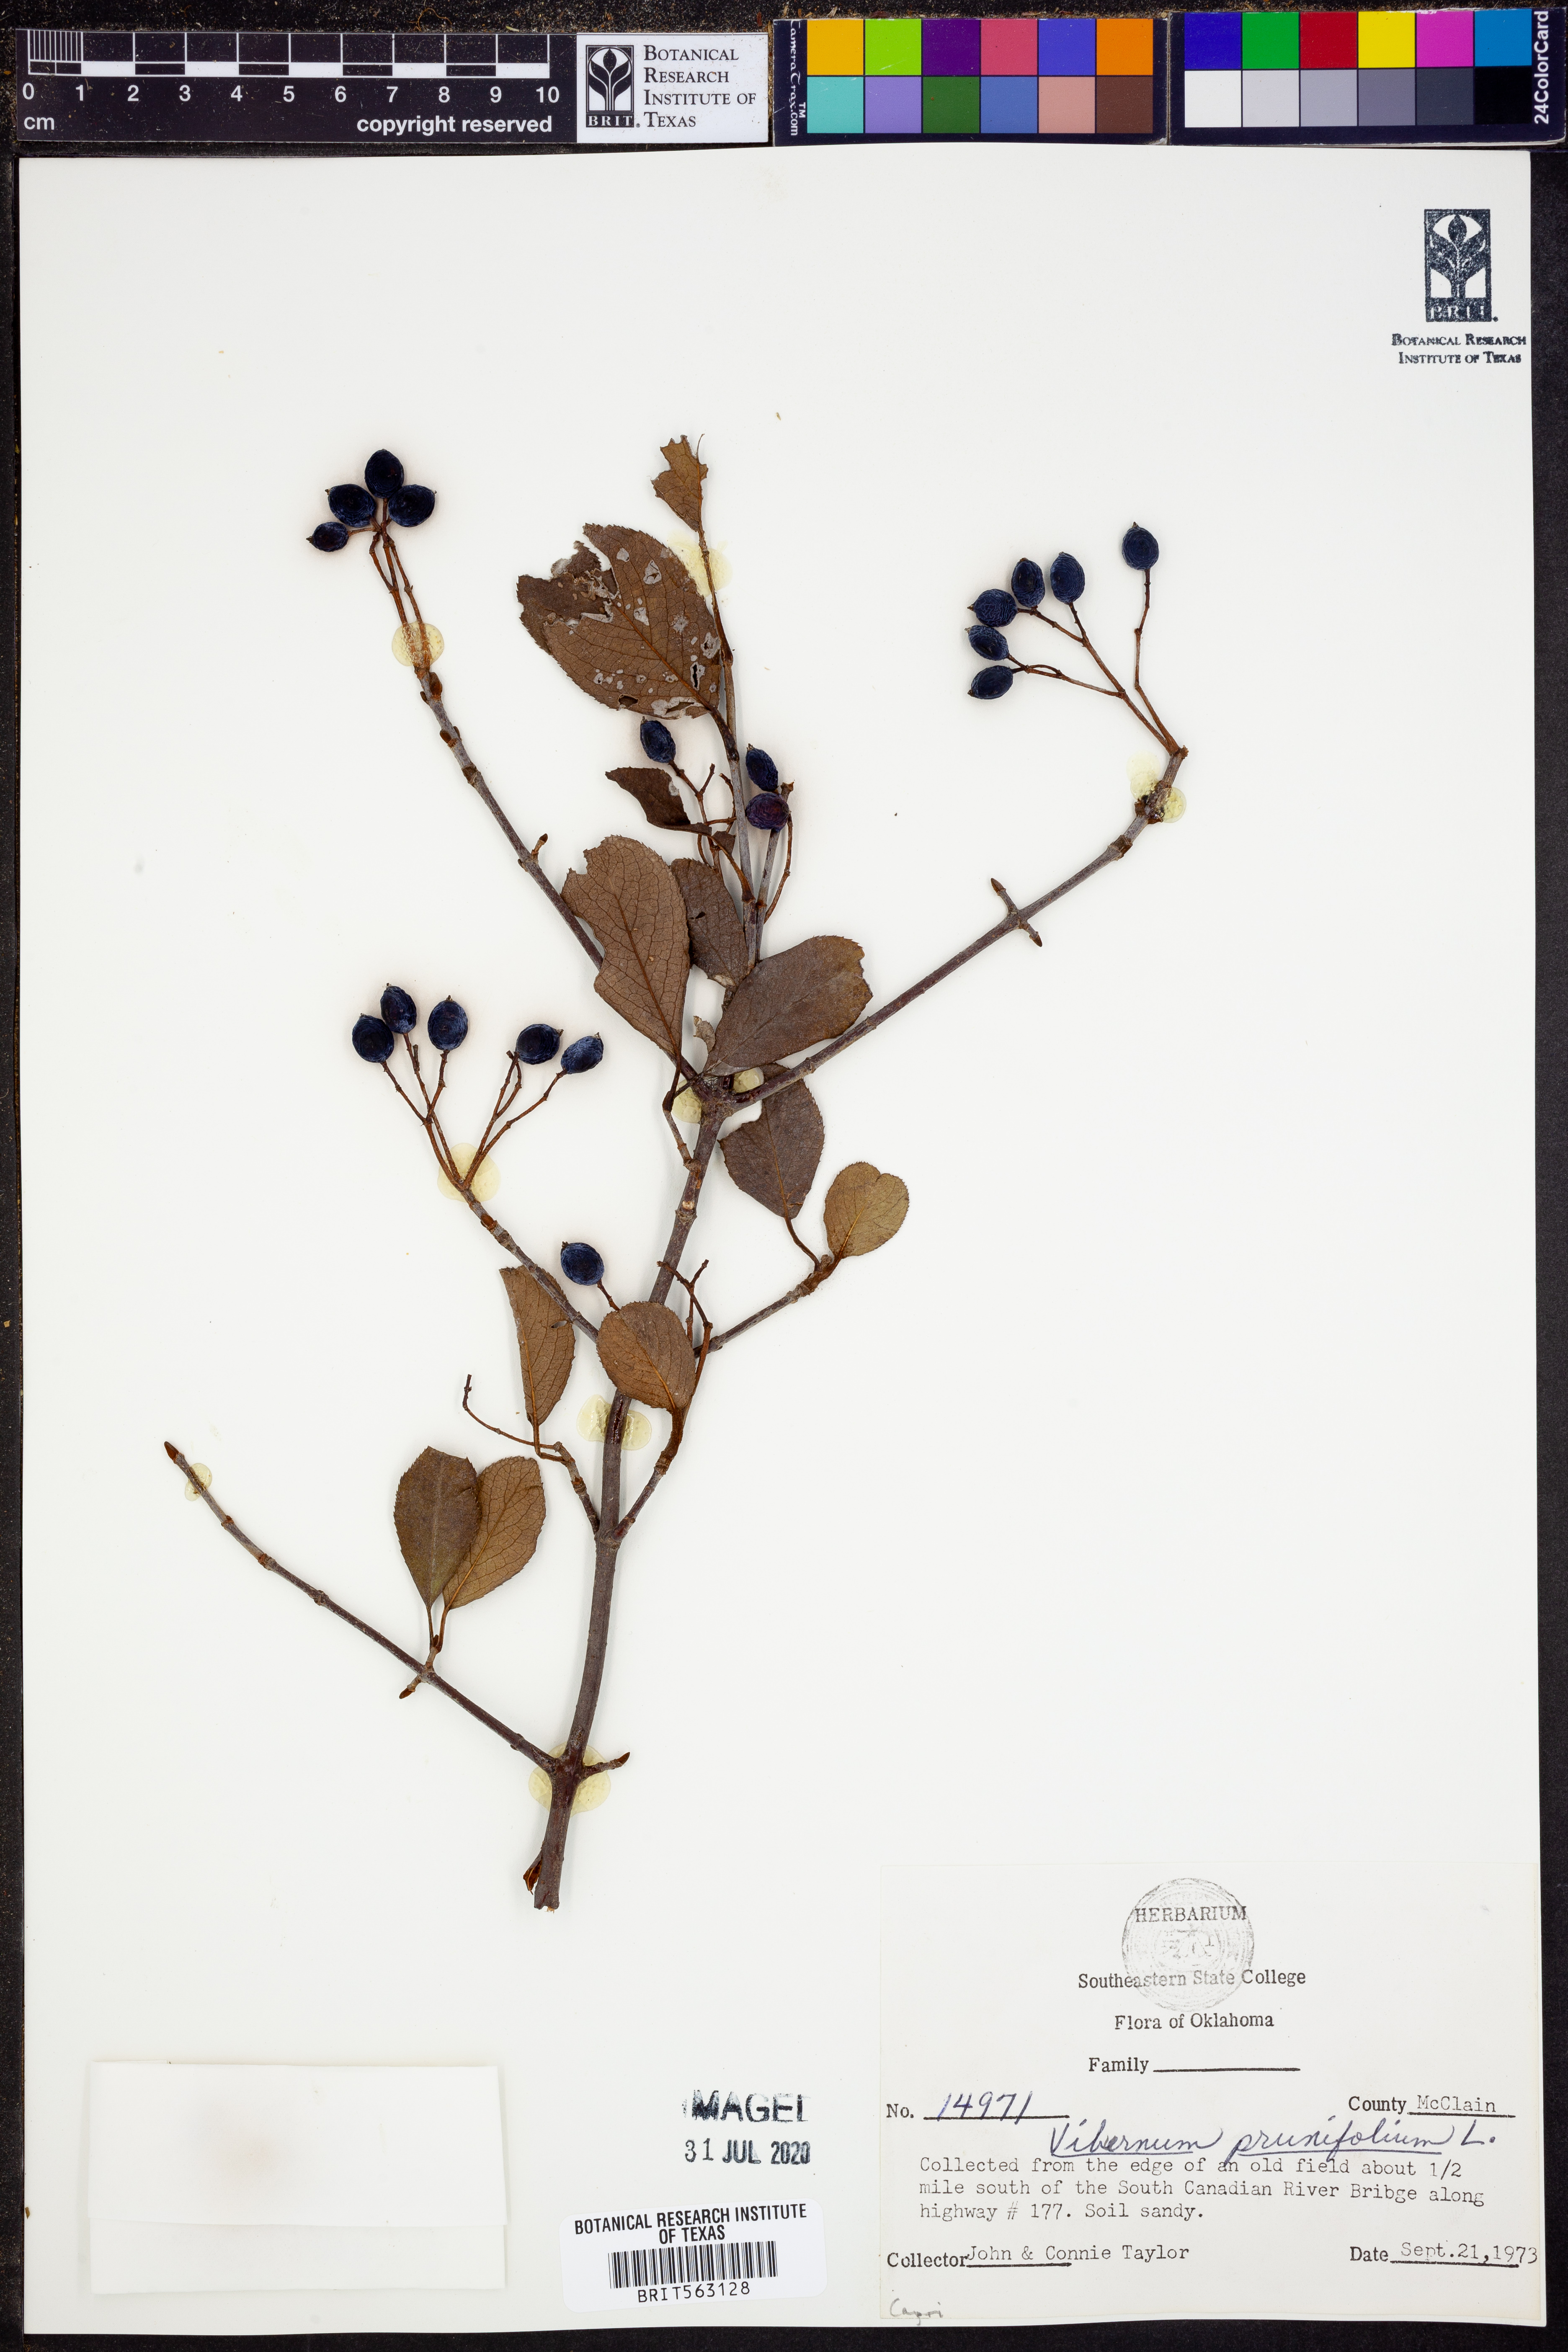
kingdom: Plantae
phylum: Tracheophyta
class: Magnoliopsida
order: Dipsacales
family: Viburnaceae
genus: Viburnum
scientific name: Viburnum prunifolium
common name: Black haw
